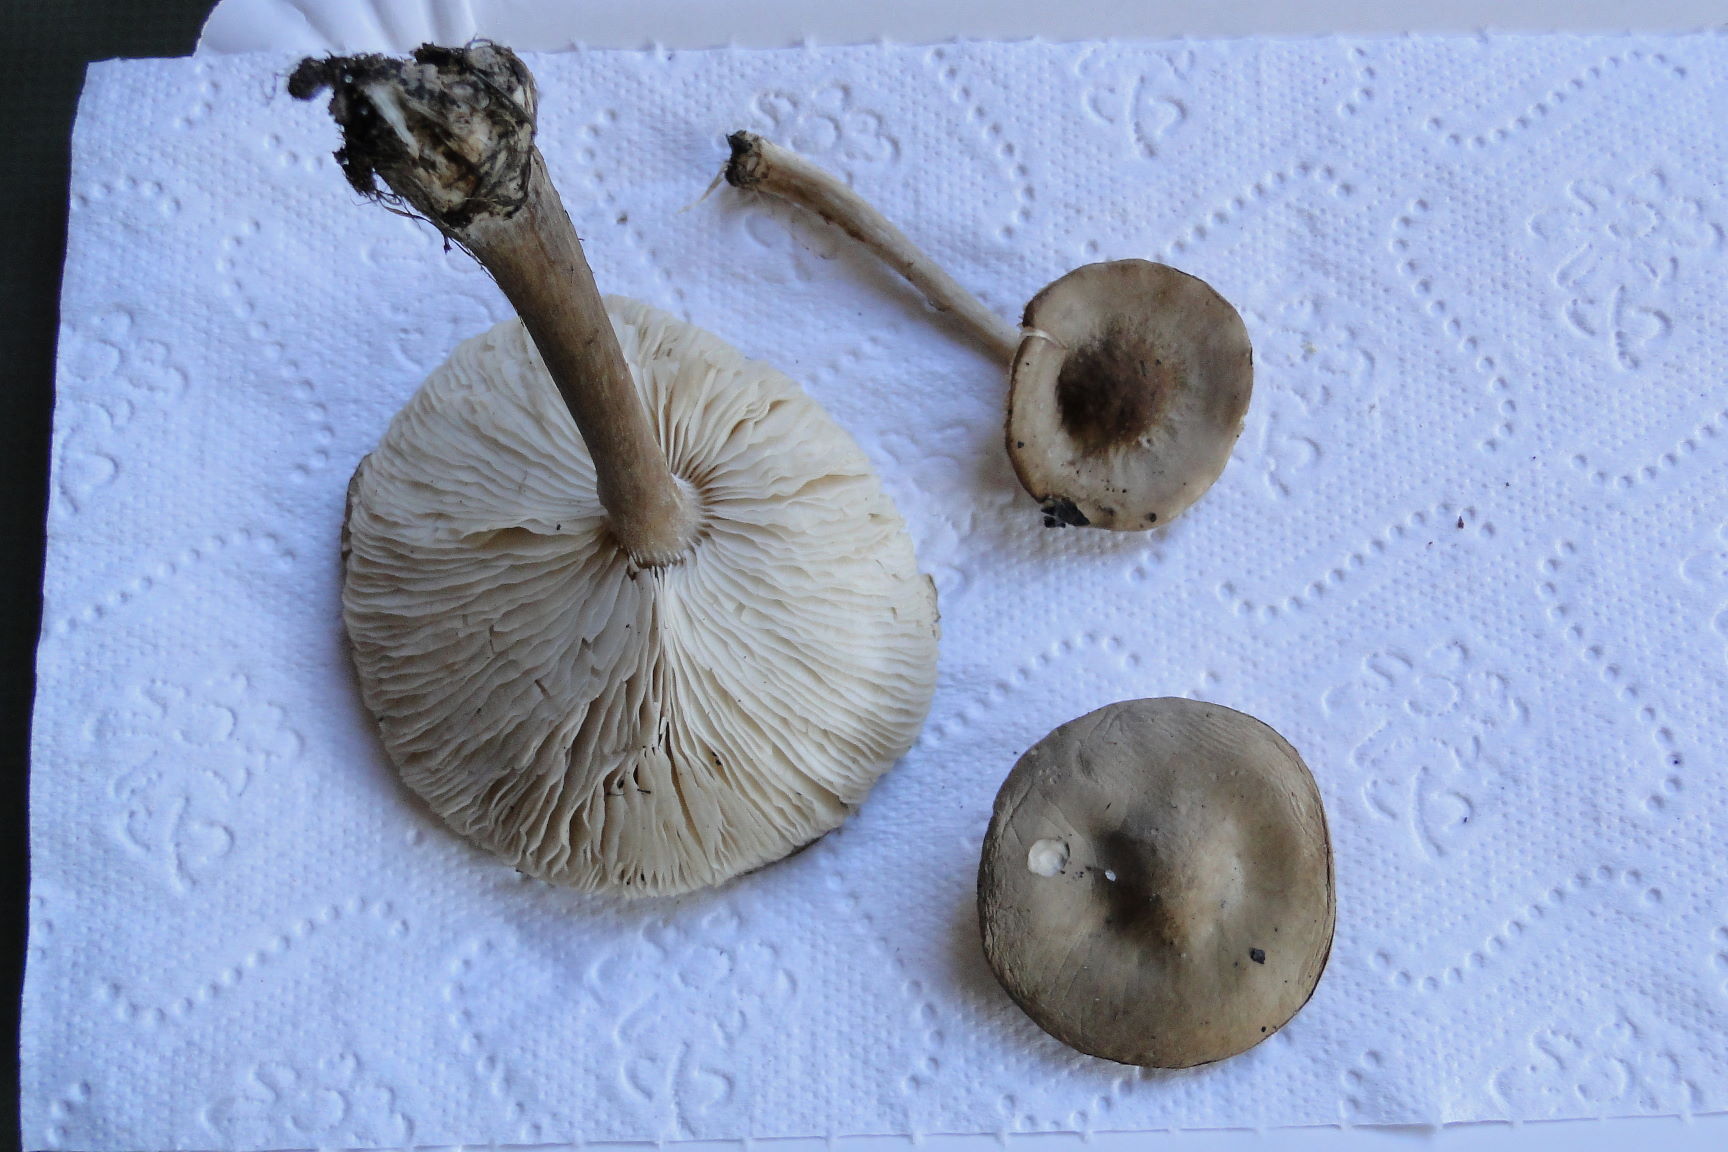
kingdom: Fungi
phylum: Basidiomycota
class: Agaricomycetes
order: Agaricales
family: Tricholomataceae
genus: Melanoleuca
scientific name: Melanoleuca rasilis
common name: eng-munkehat
